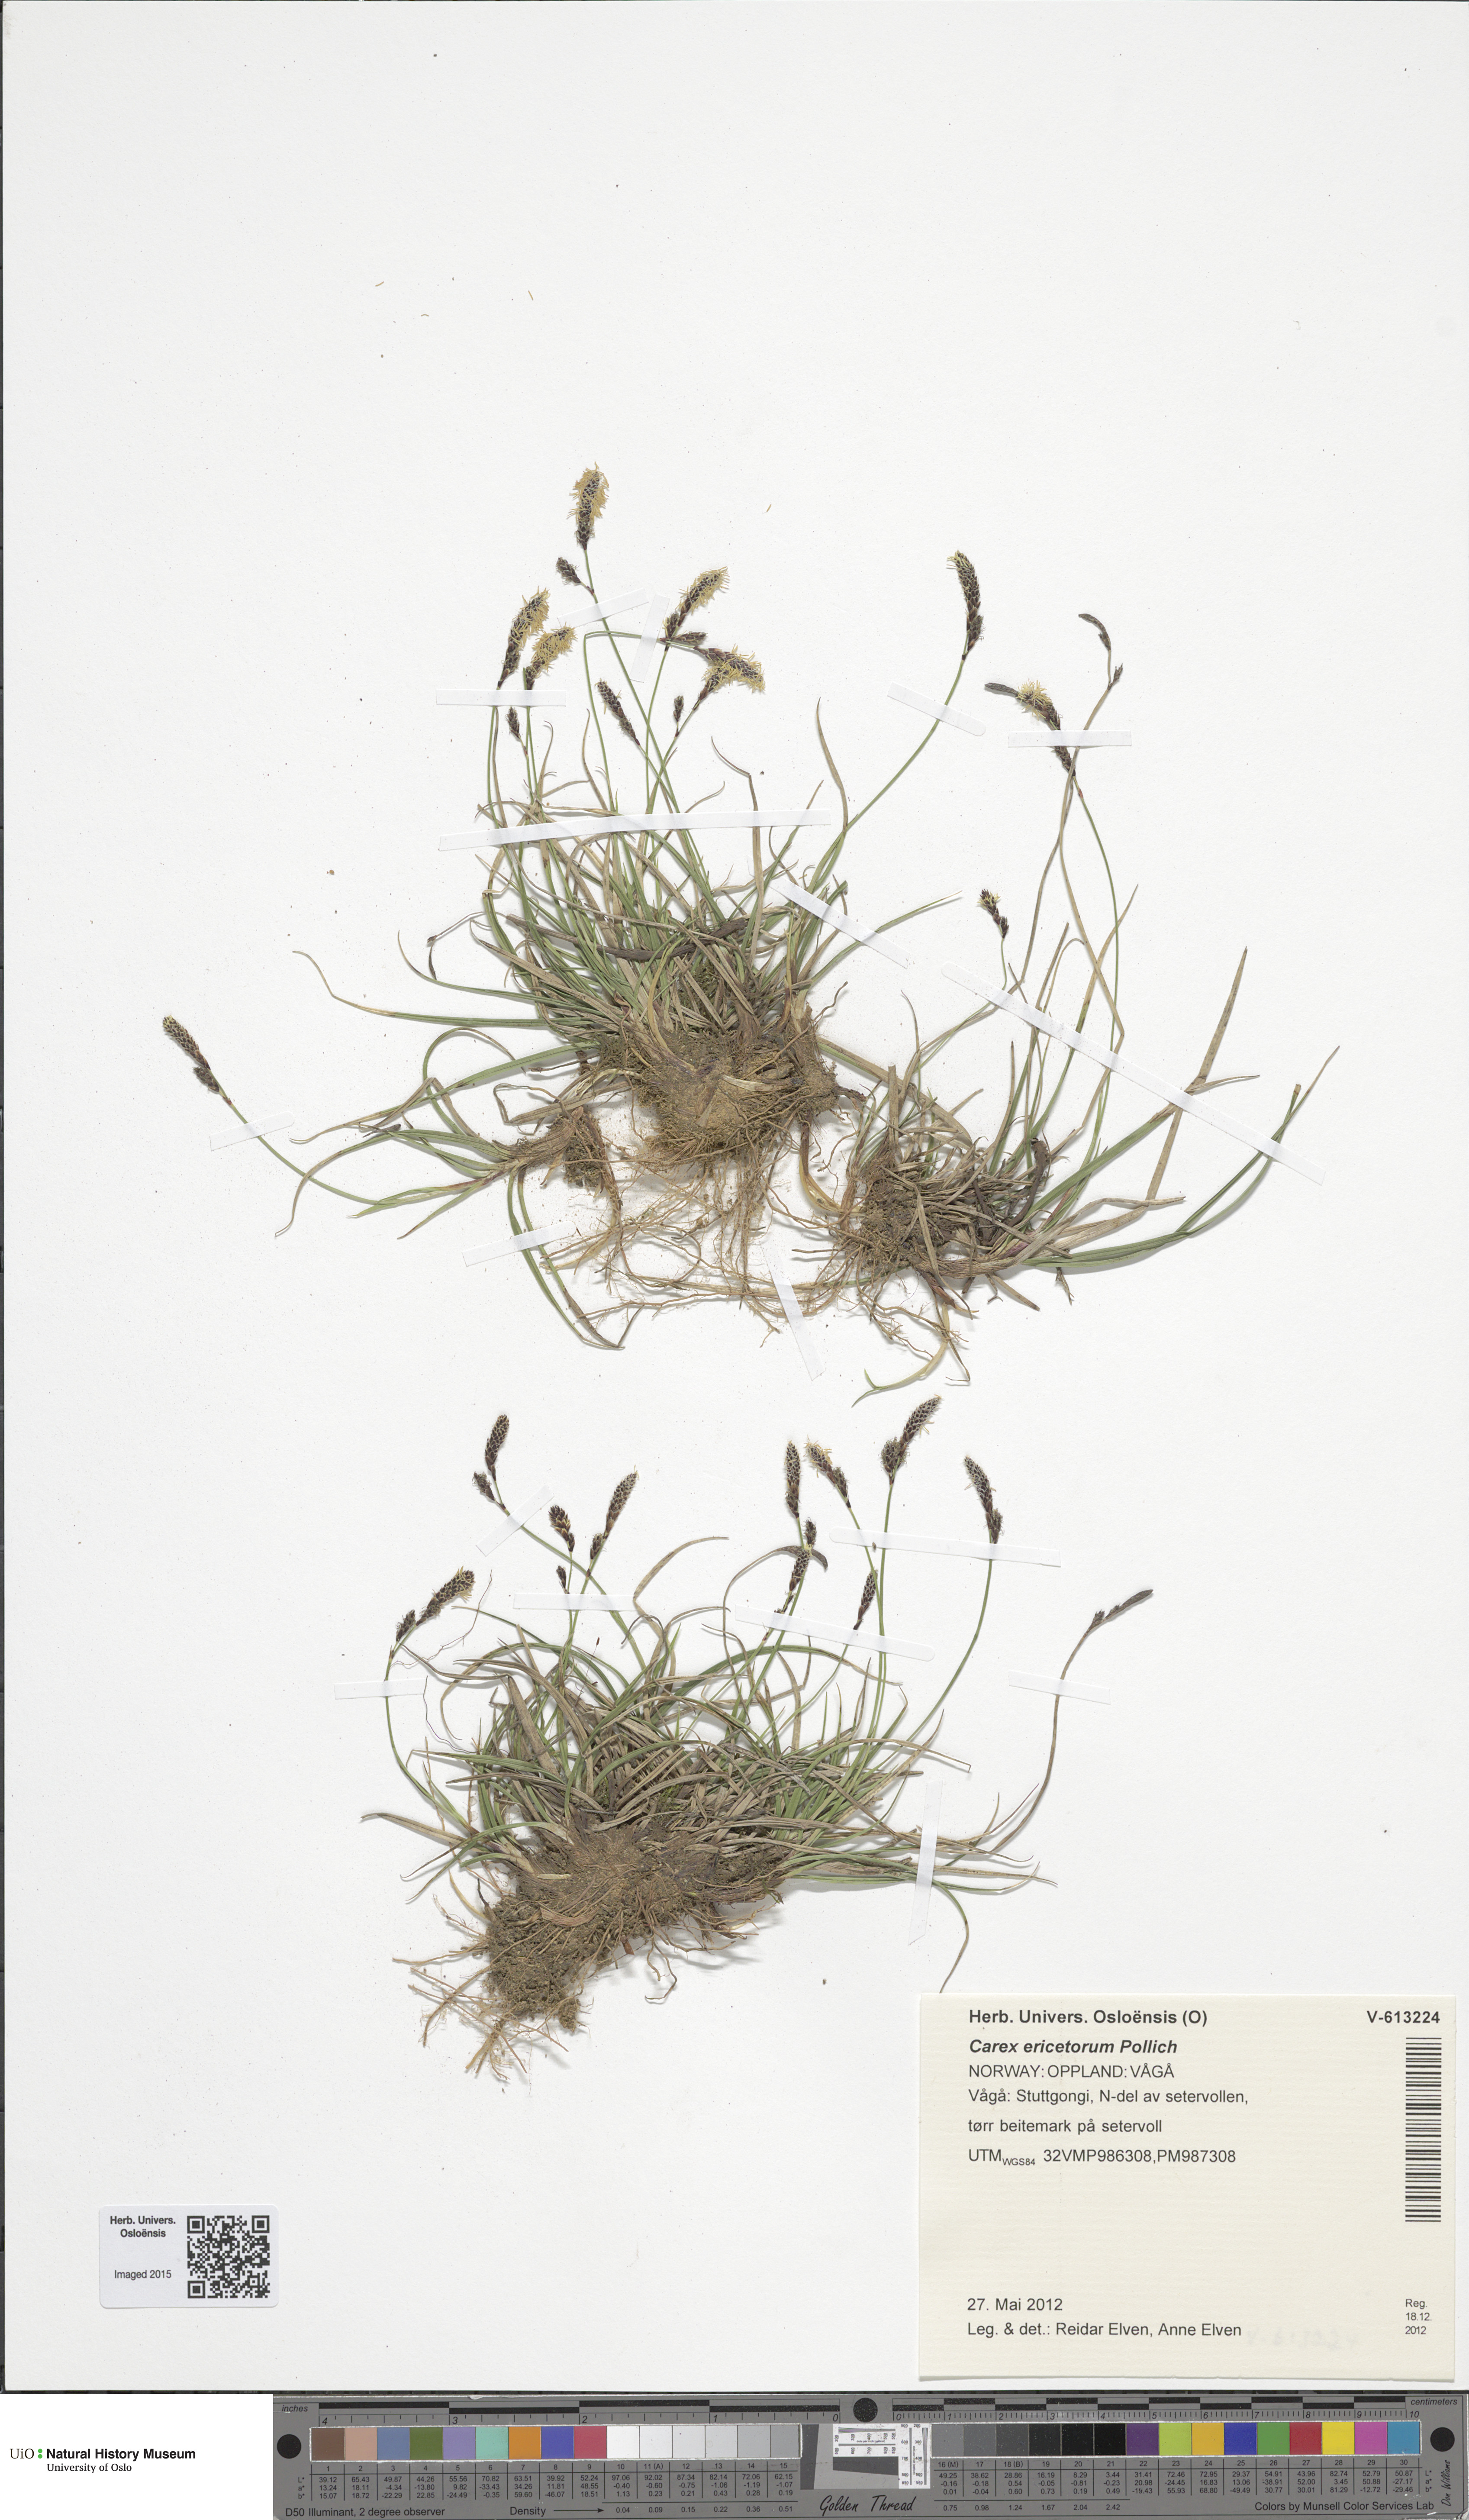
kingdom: Plantae
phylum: Tracheophyta
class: Liliopsida
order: Poales
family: Cyperaceae
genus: Carex
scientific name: Carex ericetorum
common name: Rare spring-sedge
